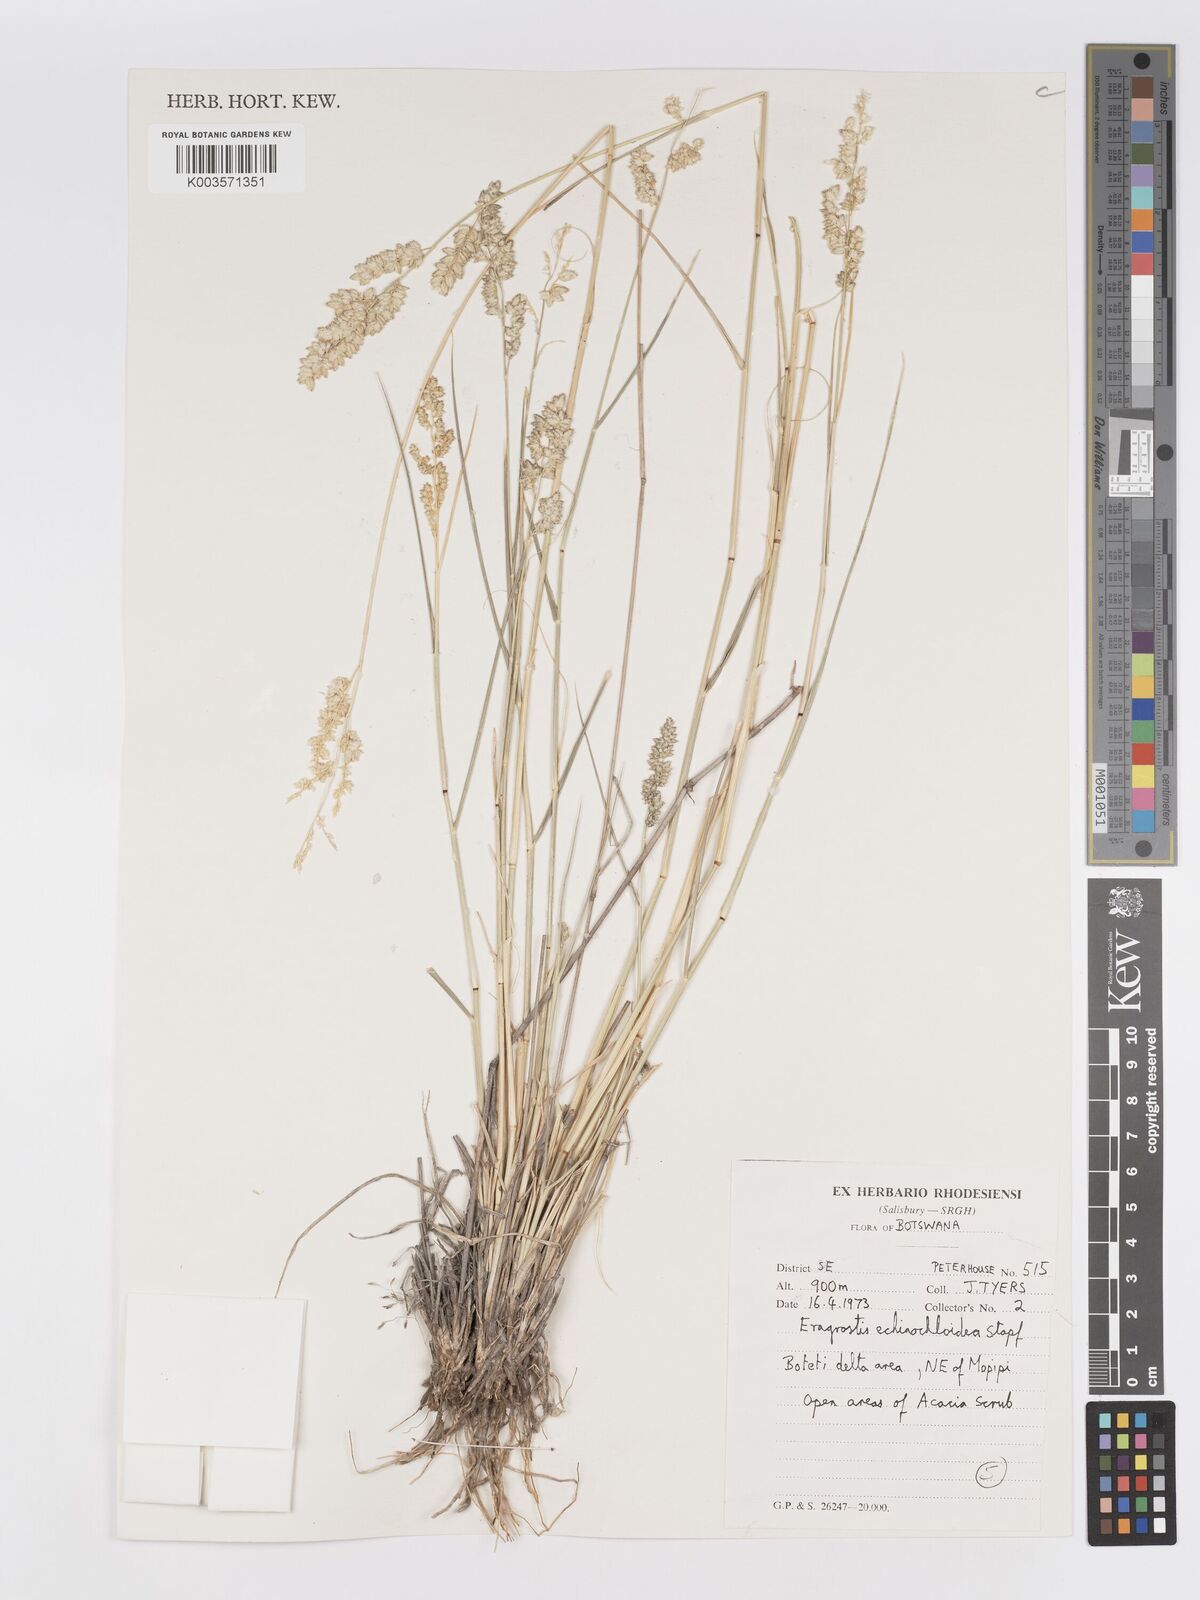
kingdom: Plantae
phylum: Tracheophyta
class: Liliopsida
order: Poales
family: Poaceae
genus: Eragrostis
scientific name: Eragrostis echinochloidea
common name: African lovegrass
